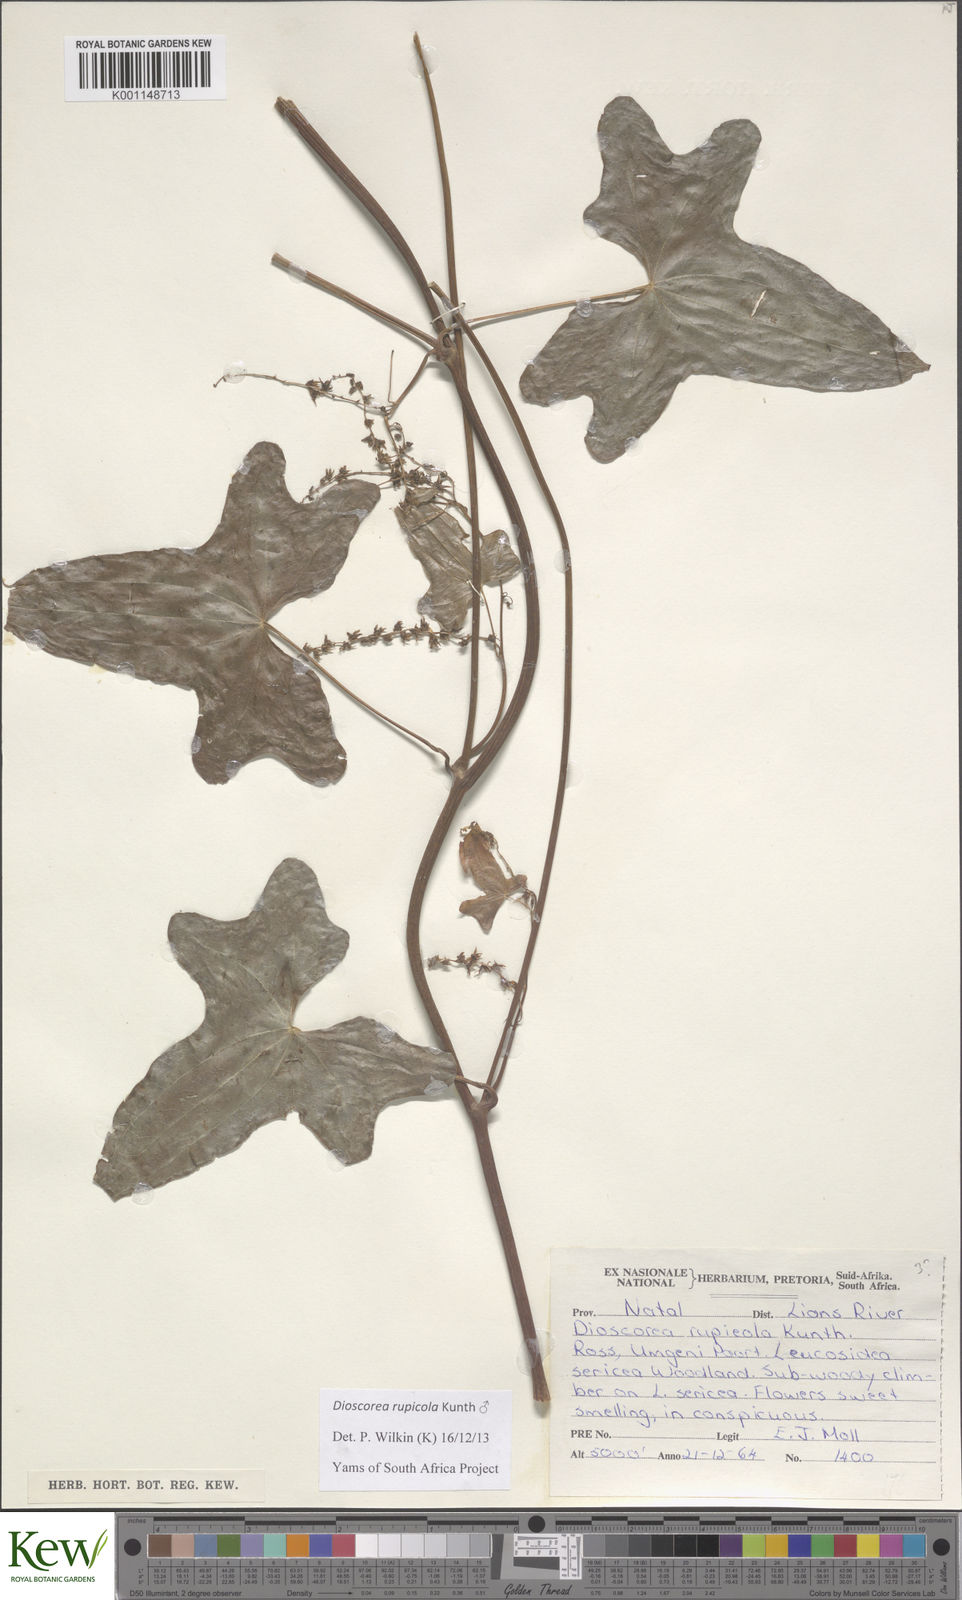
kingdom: Plantae
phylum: Tracheophyta
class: Liliopsida
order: Dioscoreales
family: Dioscoreaceae
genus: Dioscorea
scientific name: Dioscorea rupicola
